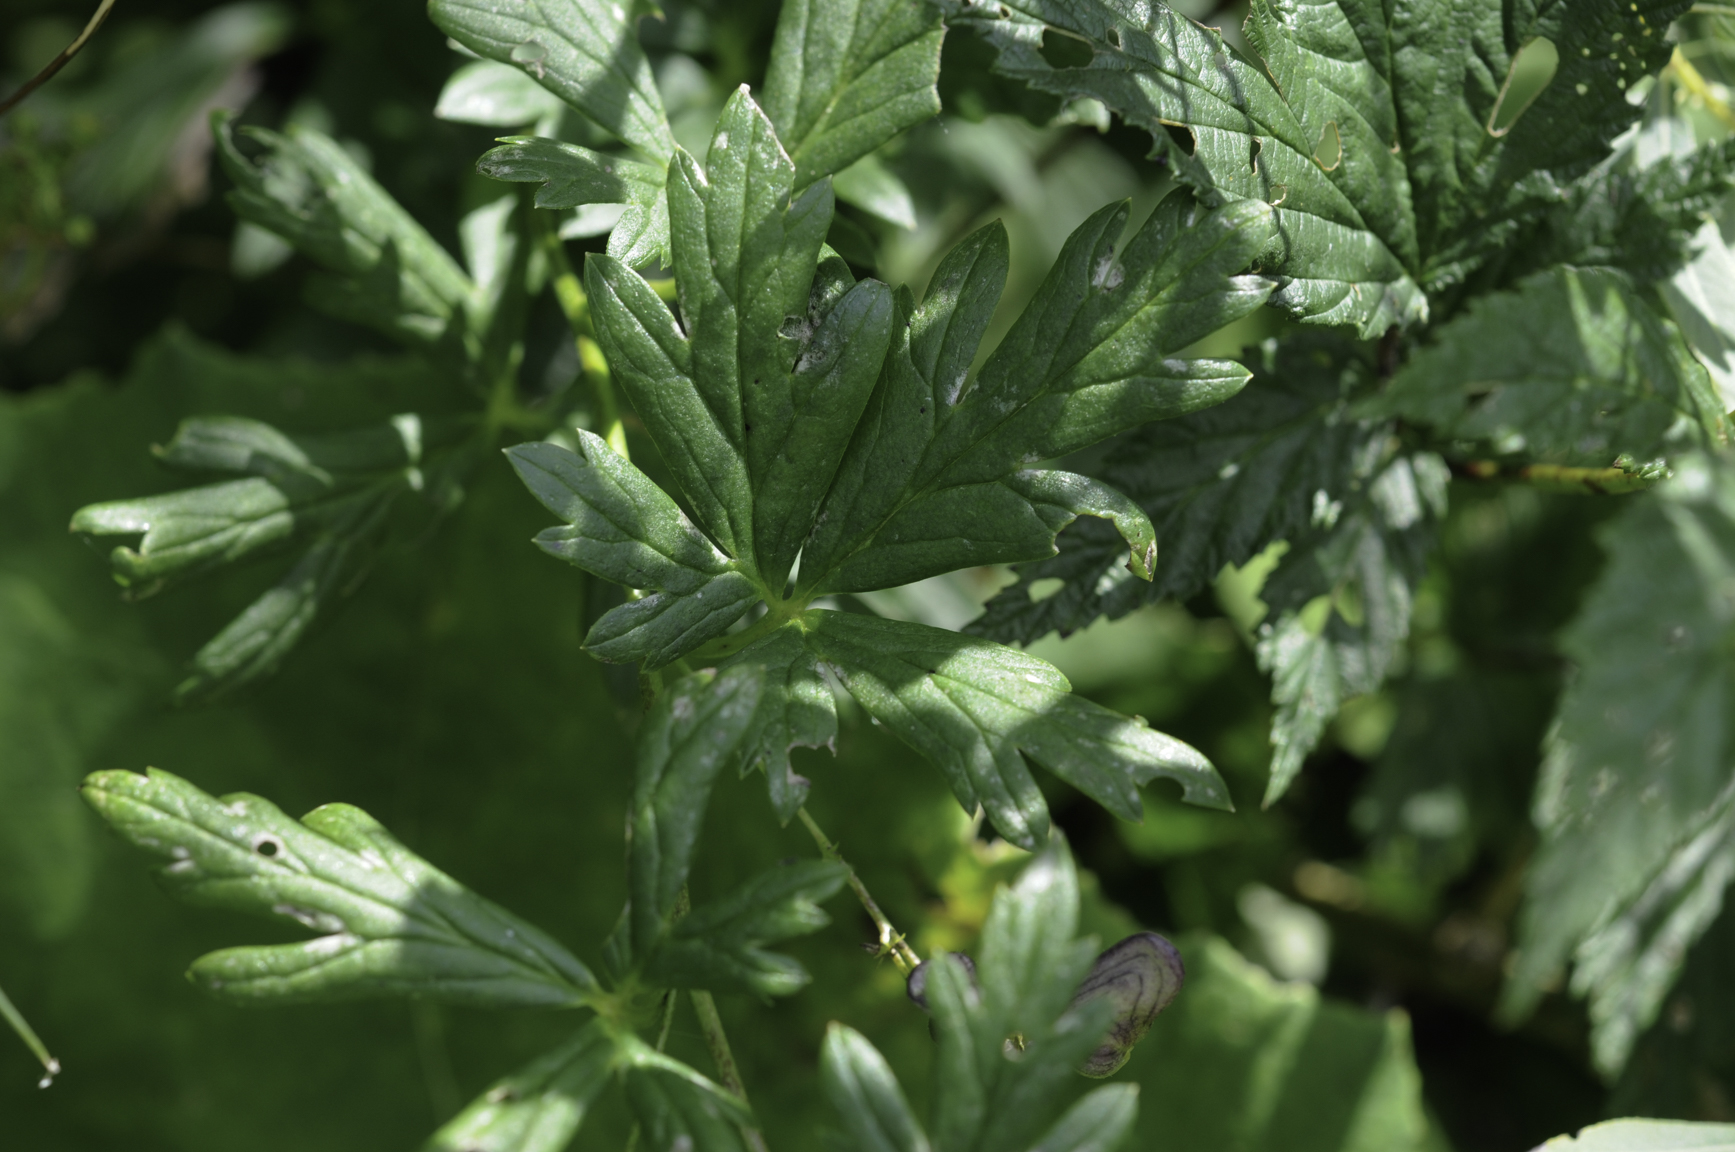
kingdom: Plantae
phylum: Tracheophyta
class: Magnoliopsida
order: Ranunculales
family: Ranunculaceae
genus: Aconitum
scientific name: Aconitum variegatum
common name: Manchurian monkshood
